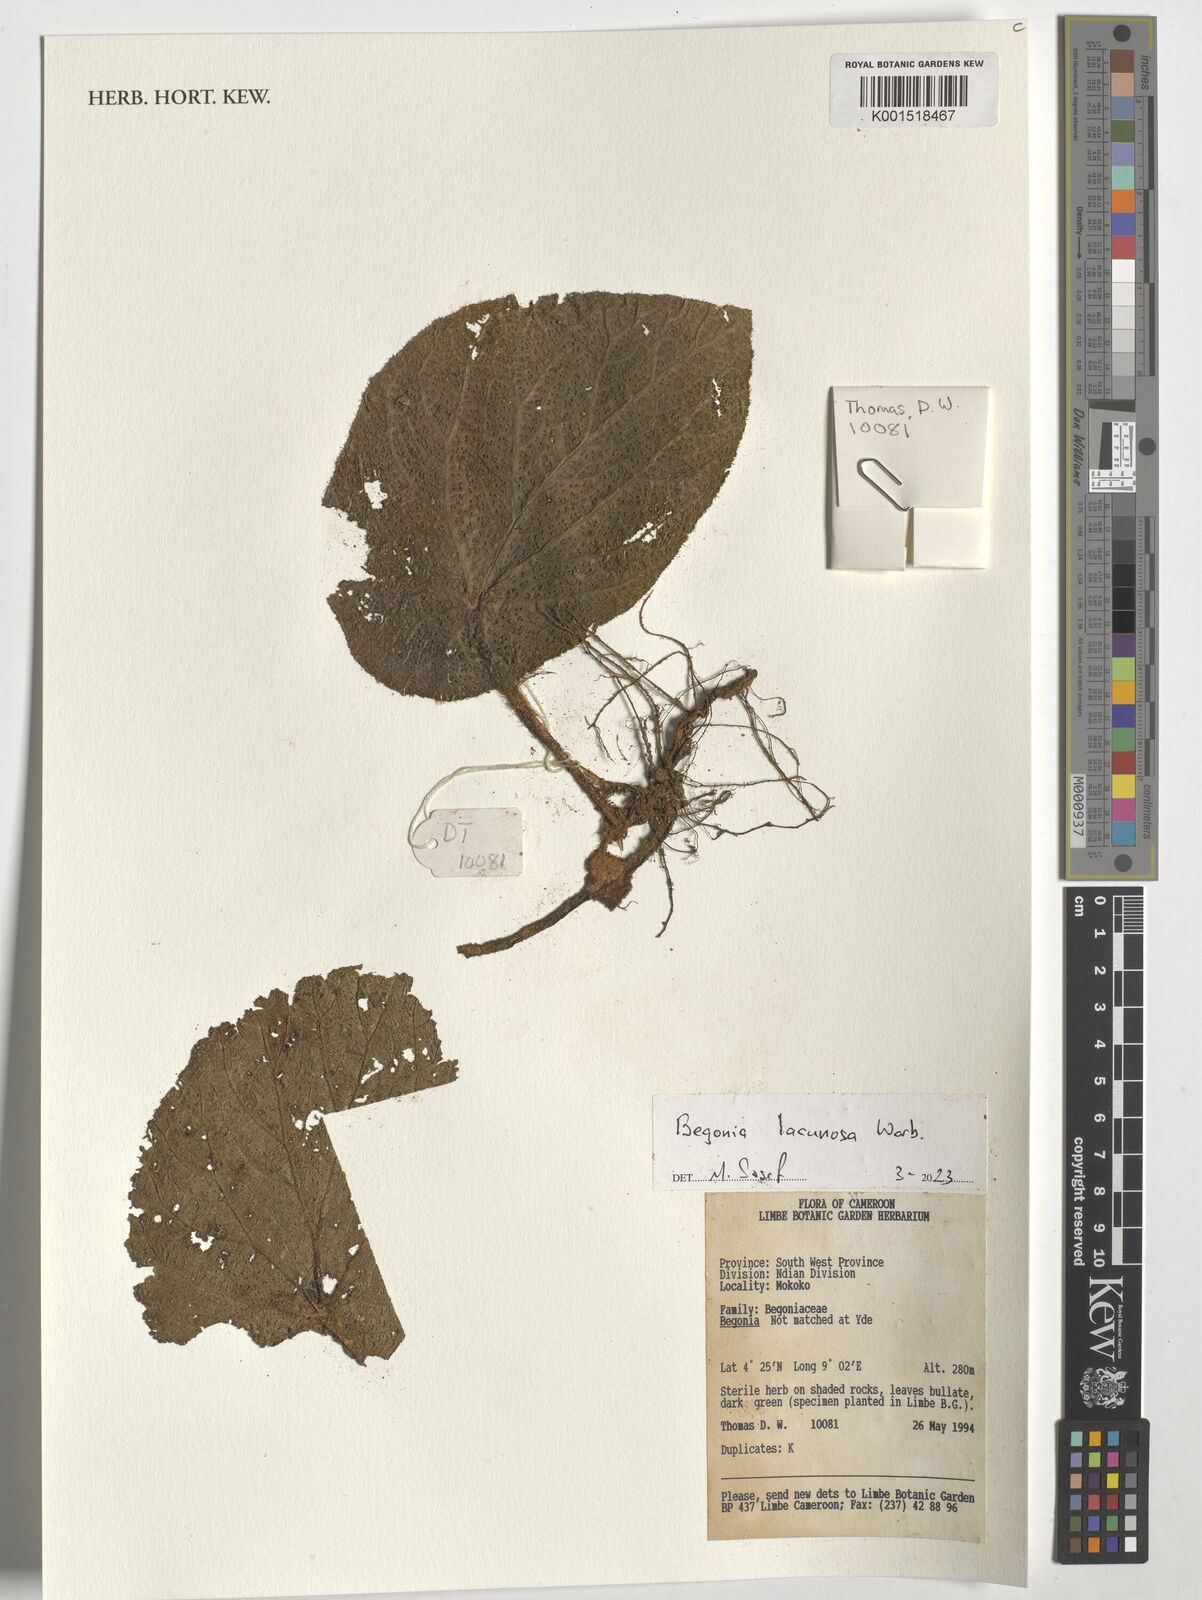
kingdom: Plantae
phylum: Tracheophyta
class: Magnoliopsida
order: Cucurbitales
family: Begoniaceae
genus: Begonia
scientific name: Begonia lacunosa
